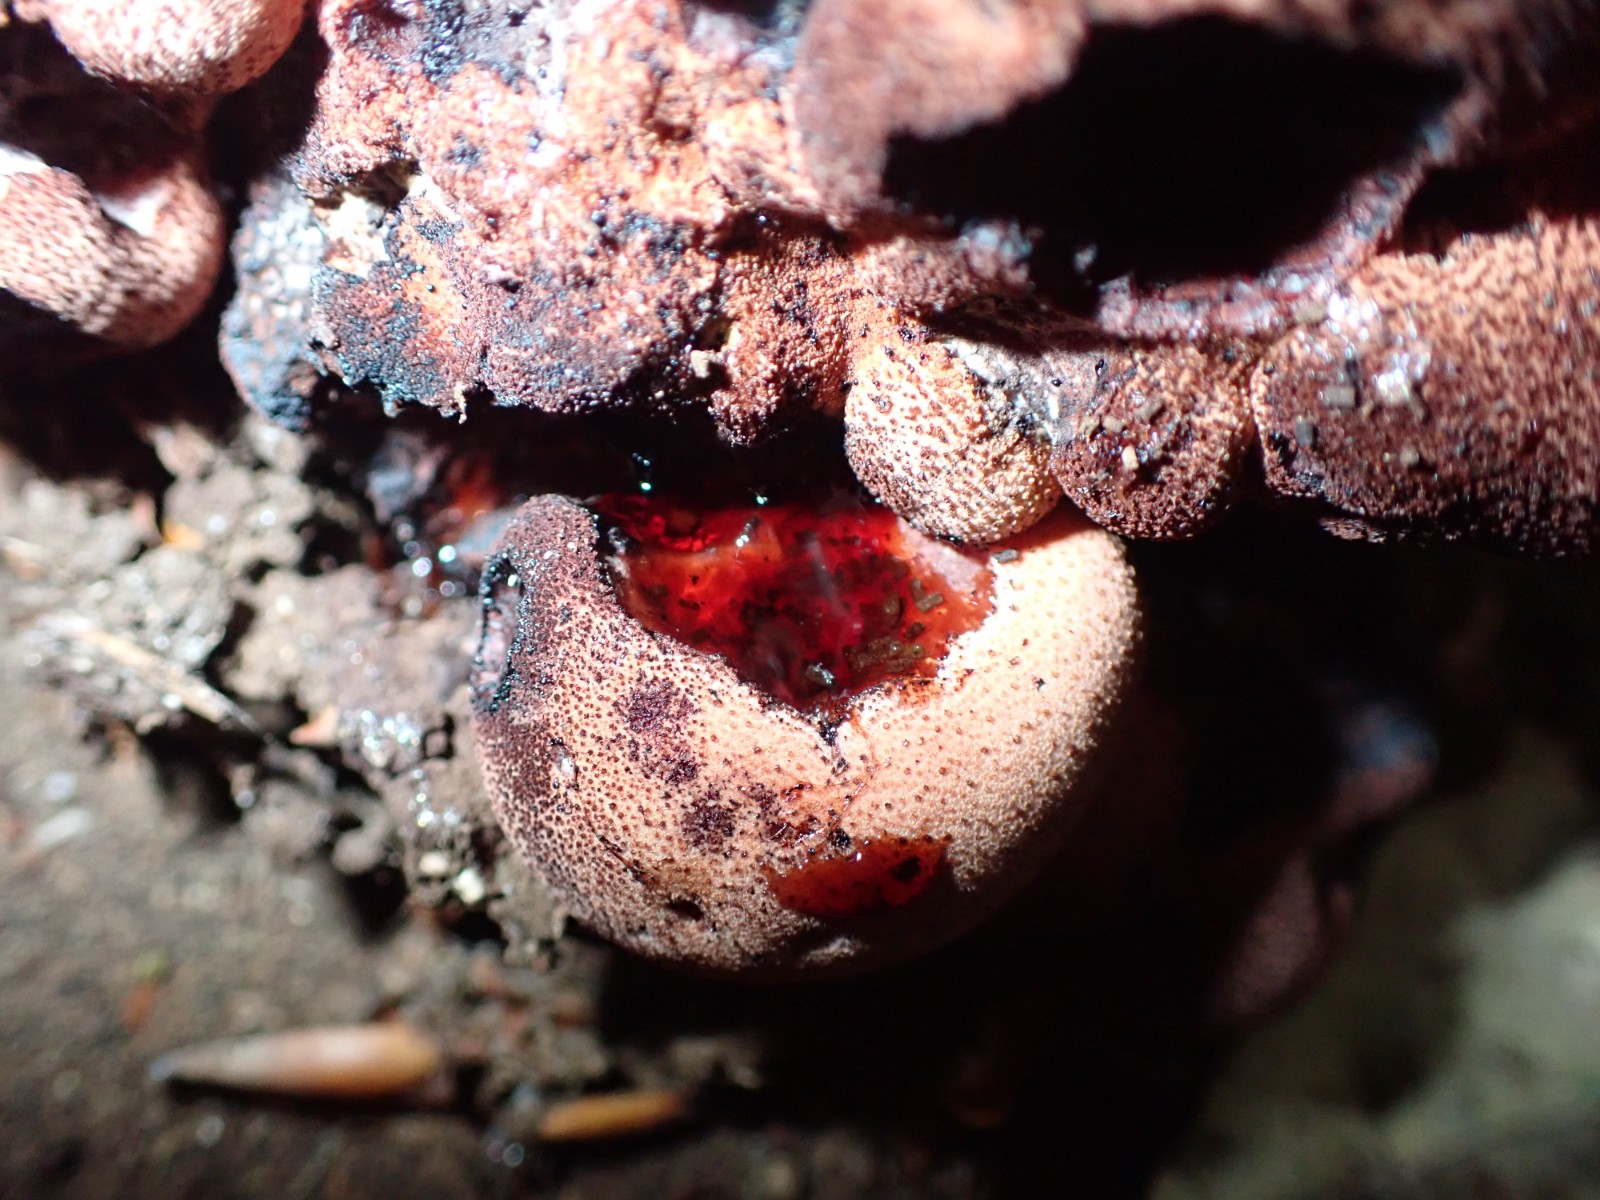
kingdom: Fungi
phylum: Basidiomycota
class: Agaricomycetes
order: Agaricales
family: Fistulinaceae
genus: Fistulina
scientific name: Fistulina hepatica
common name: oksetunge
